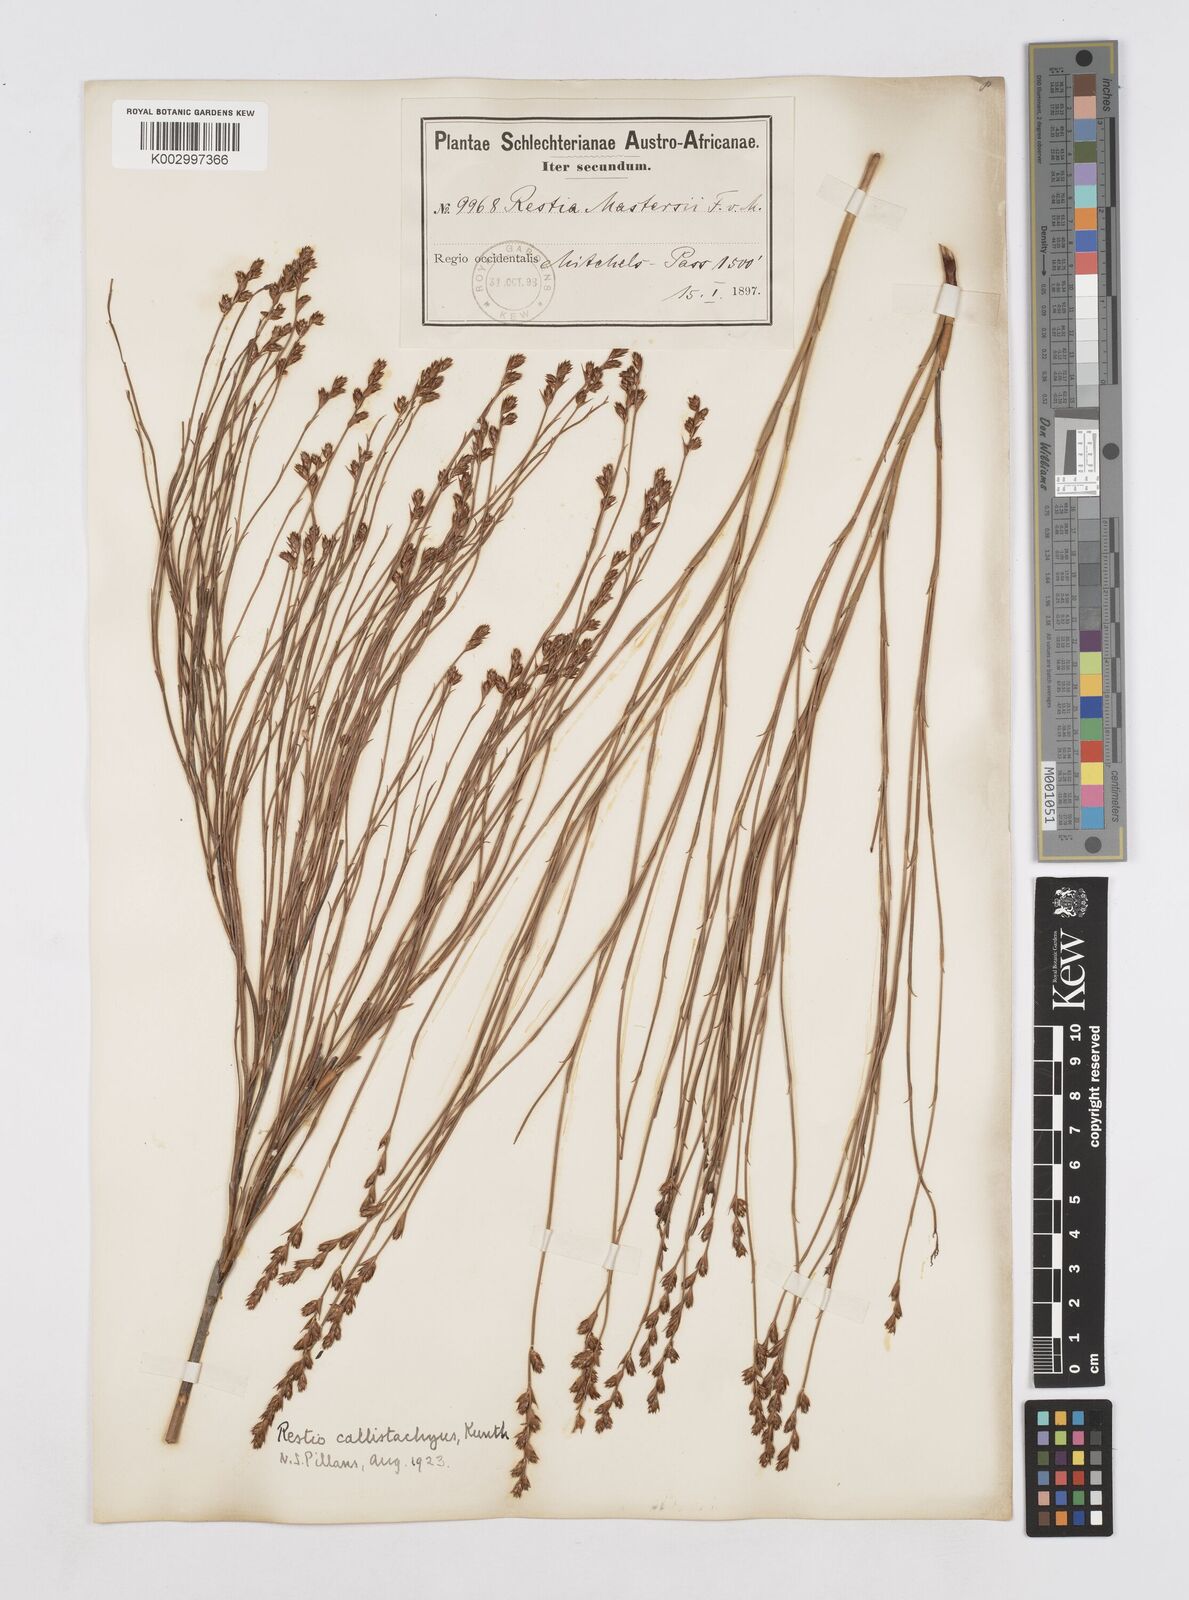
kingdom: Plantae
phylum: Tracheophyta
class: Liliopsida
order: Poales
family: Restionaceae
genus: Platycaulos
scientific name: Platycaulos callistachyus
